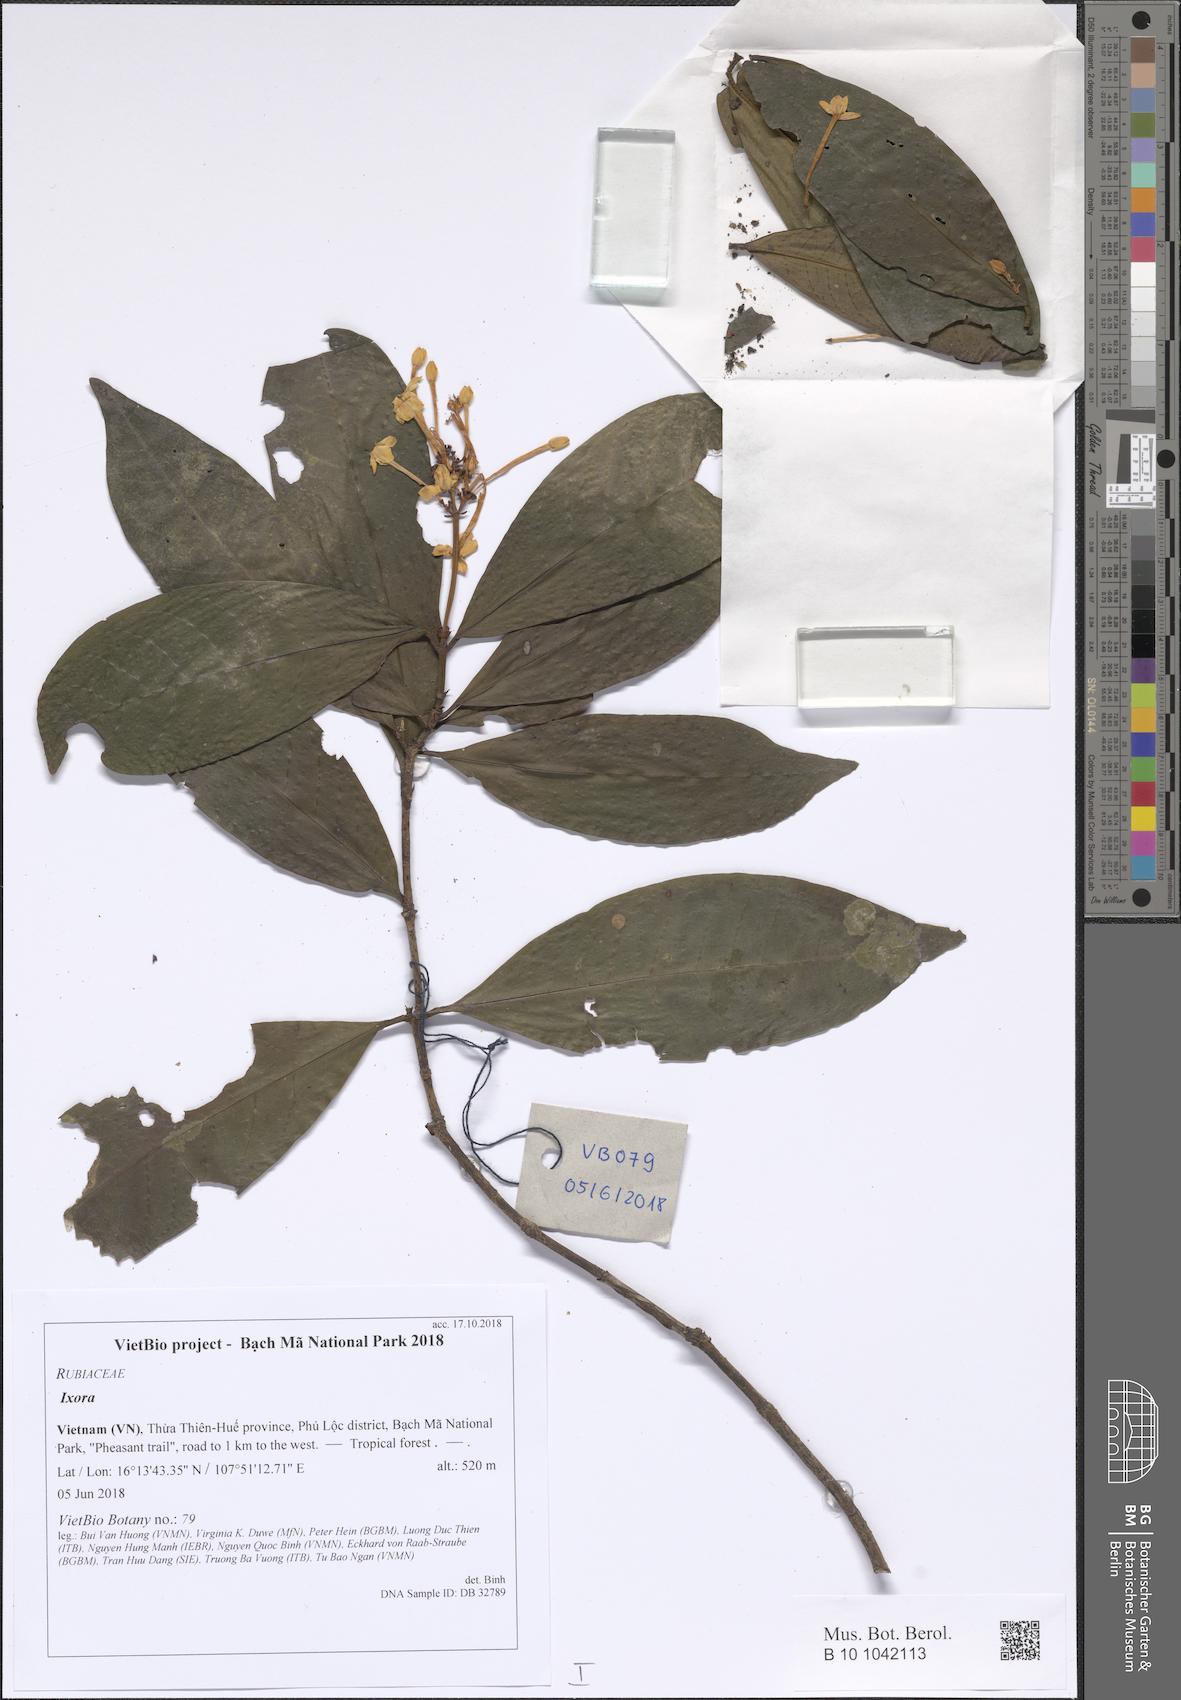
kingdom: Plantae
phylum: Tracheophyta
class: Magnoliopsida
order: Gentianales
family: Rubiaceae
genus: Ixora
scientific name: Ixora laotica
